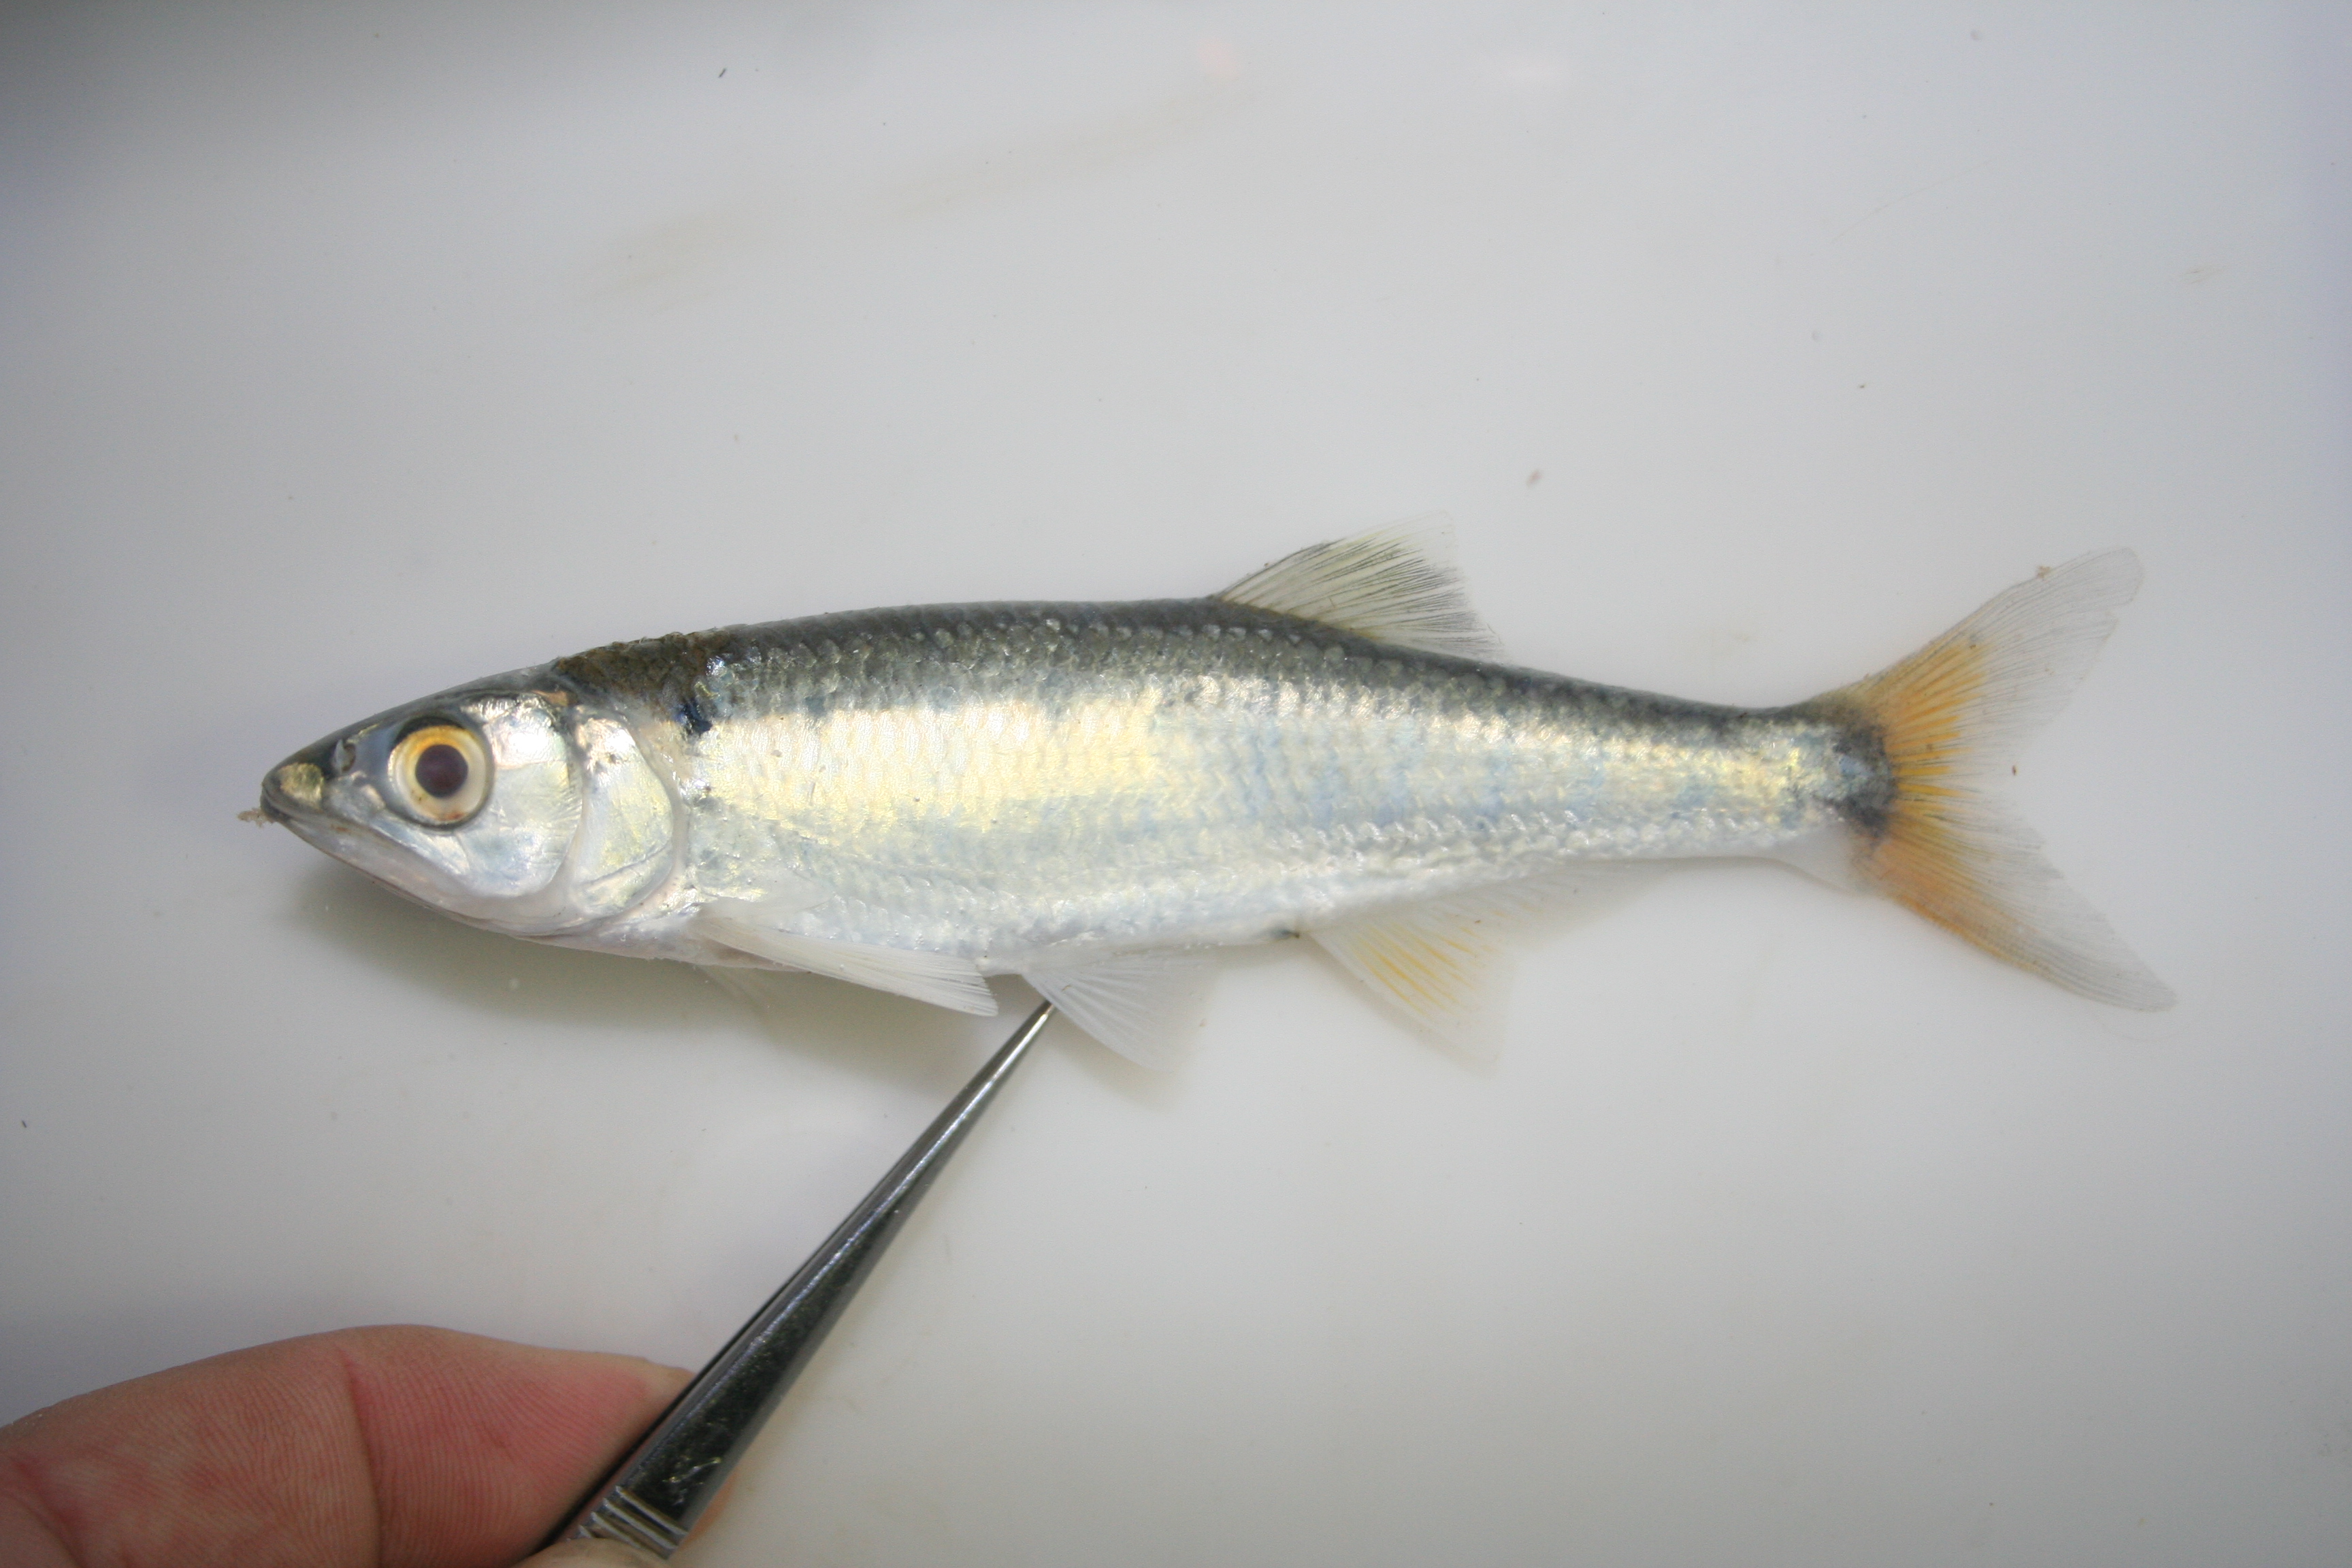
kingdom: Animalia
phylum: Chordata
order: Cypriniformes
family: Cyprinidae
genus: Opsaridium
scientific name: Opsaridium
